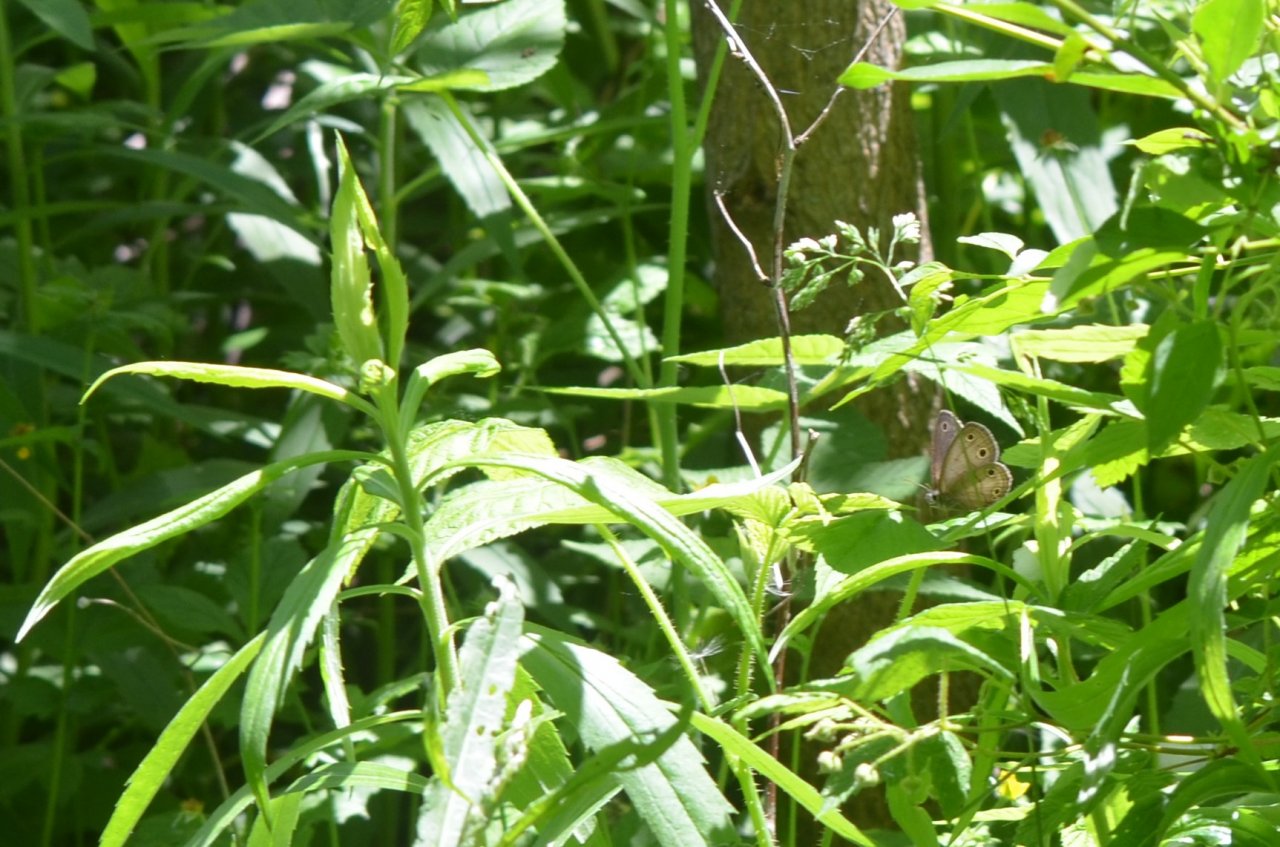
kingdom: Animalia
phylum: Arthropoda
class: Insecta
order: Lepidoptera
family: Nymphalidae
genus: Euptychia
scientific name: Euptychia cymela
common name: Little Wood Satyr
